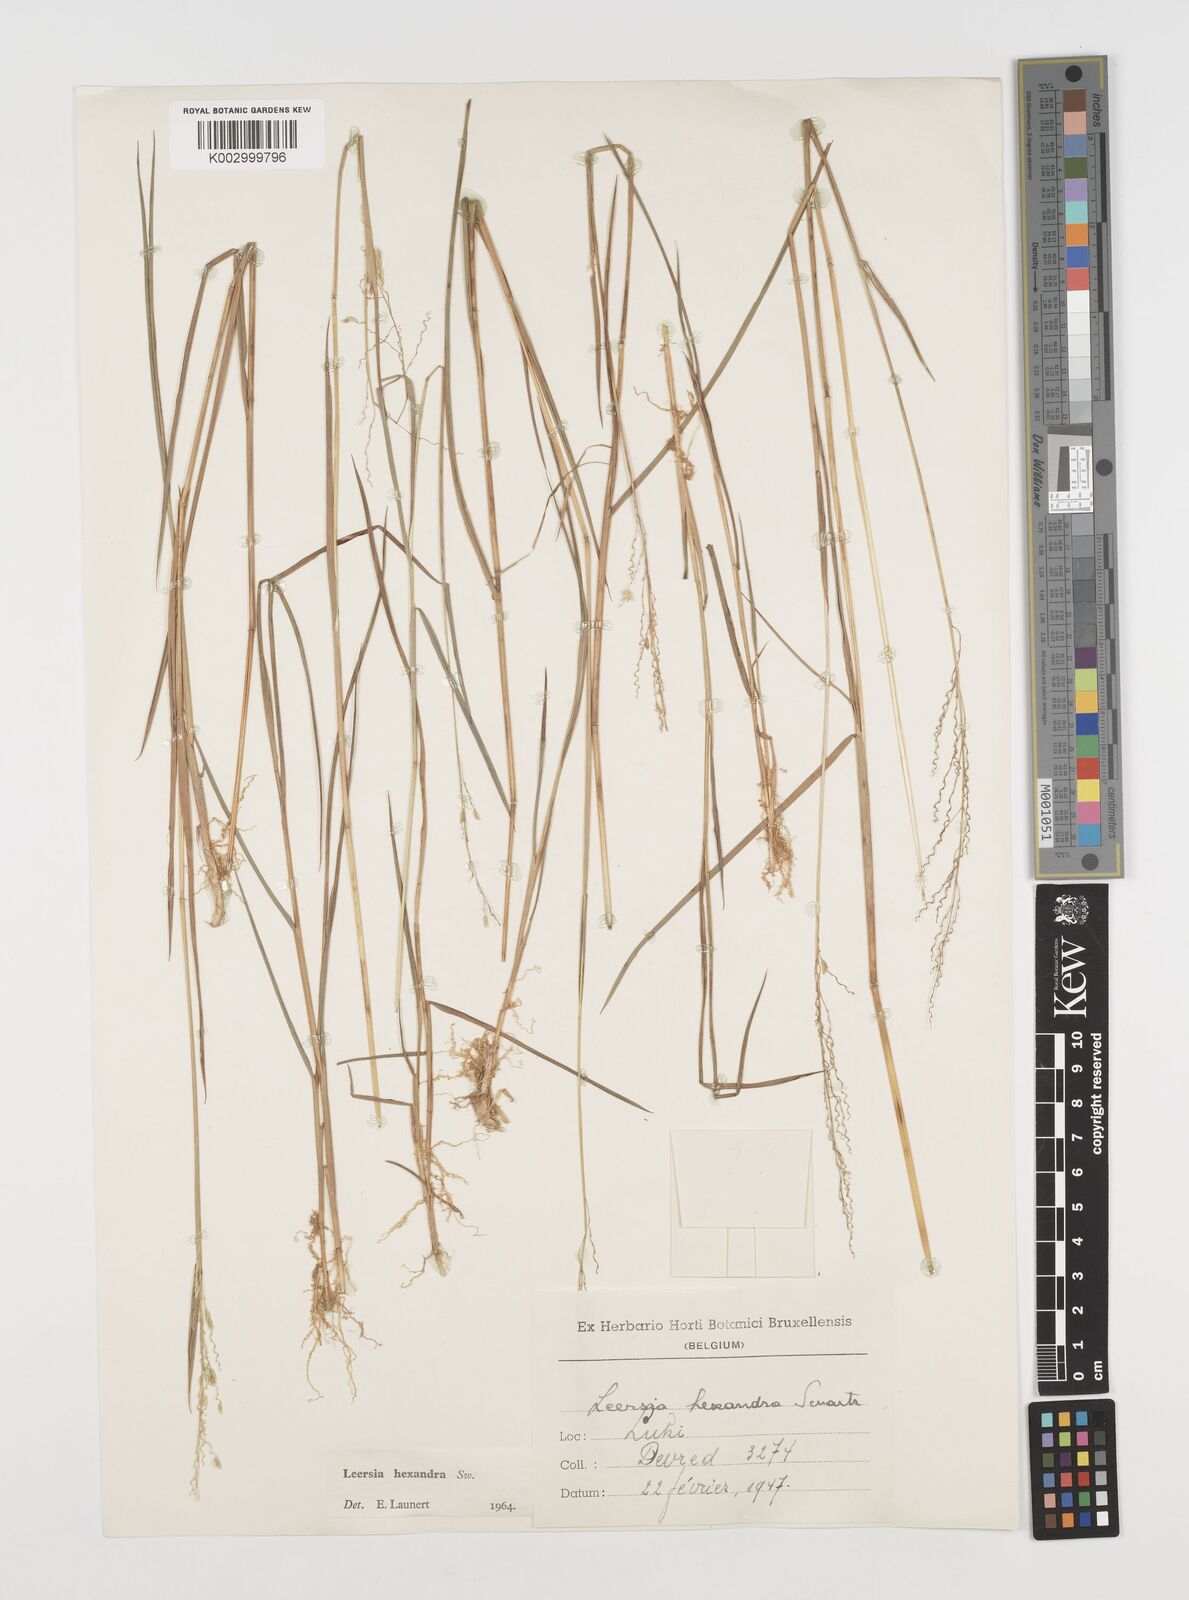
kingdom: Plantae
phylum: Tracheophyta
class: Liliopsida
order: Poales
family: Poaceae
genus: Leersia
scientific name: Leersia hexandra
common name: Southern cut grass
